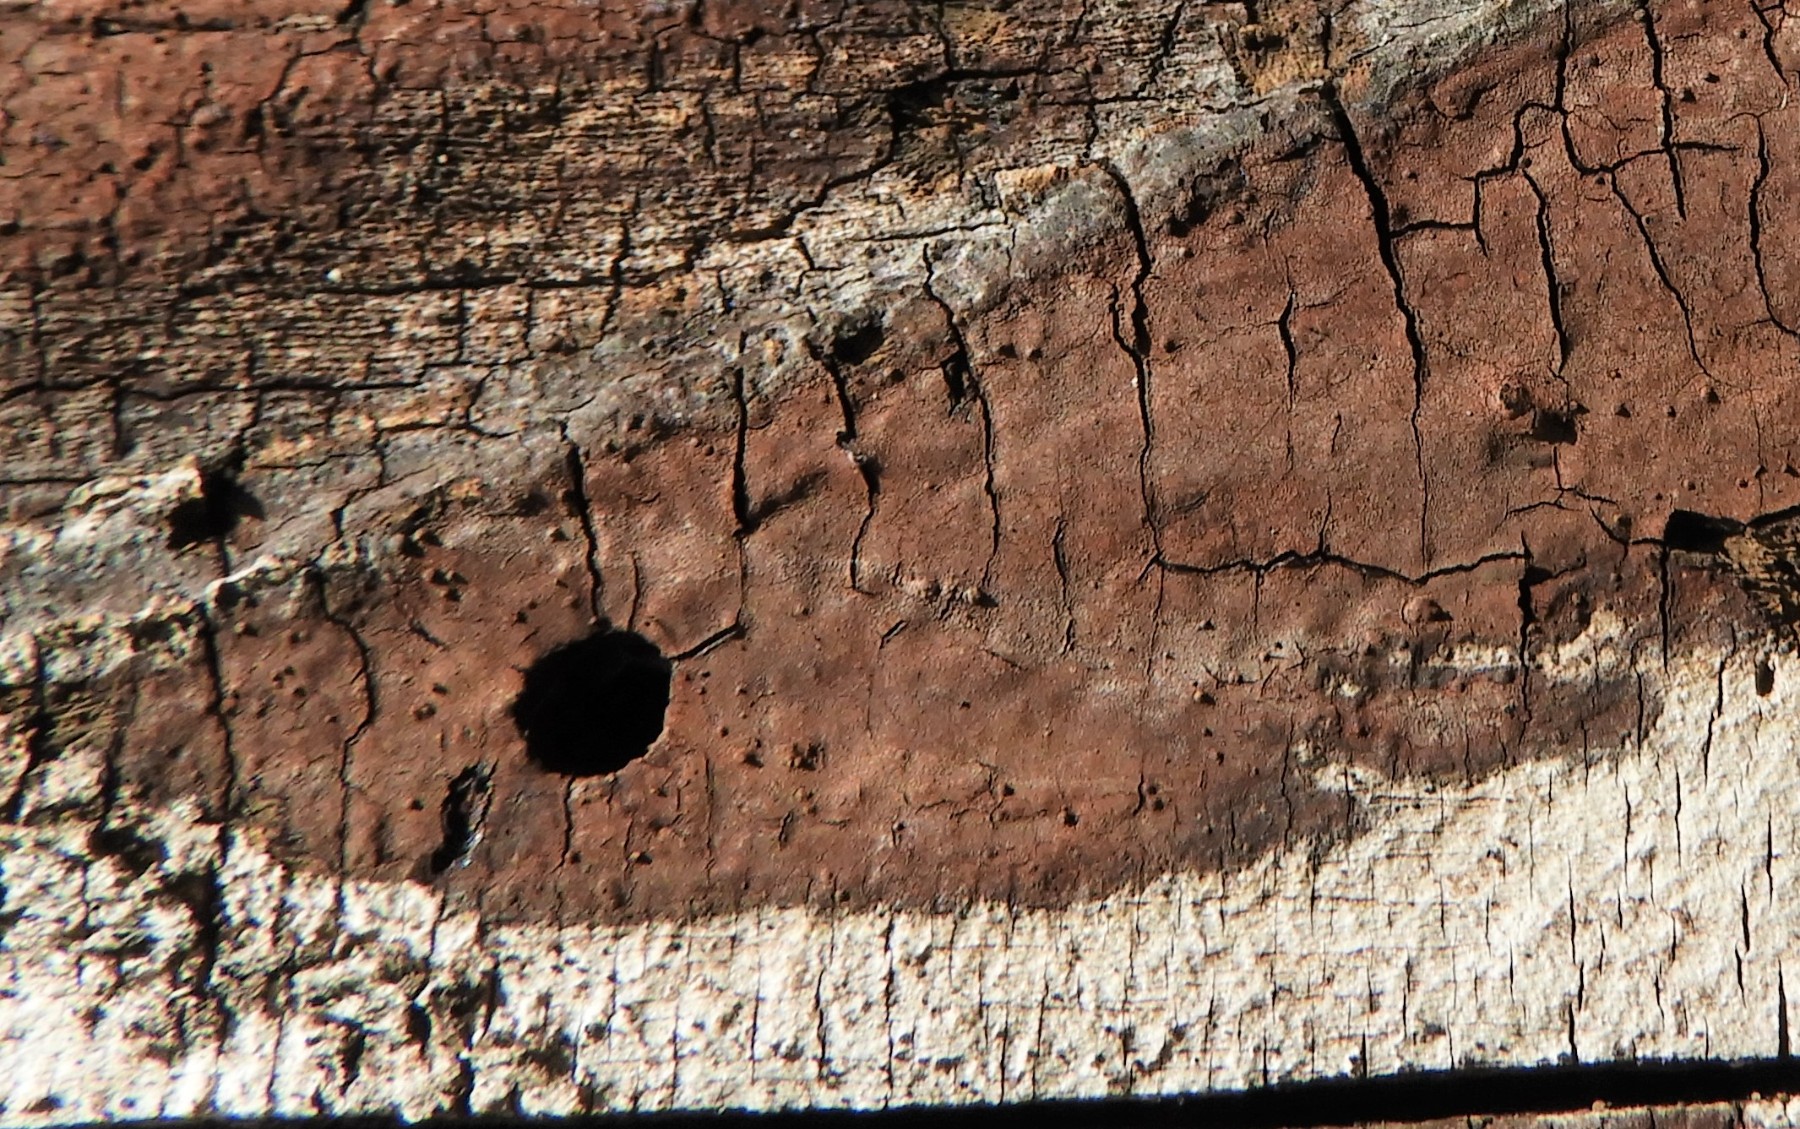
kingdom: Fungi
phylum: Ascomycota
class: Sordariomycetes
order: Xylariales
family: Hypoxylaceae
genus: Hypoxylon
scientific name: Hypoxylon petriniae
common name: nedsænket kulbær
